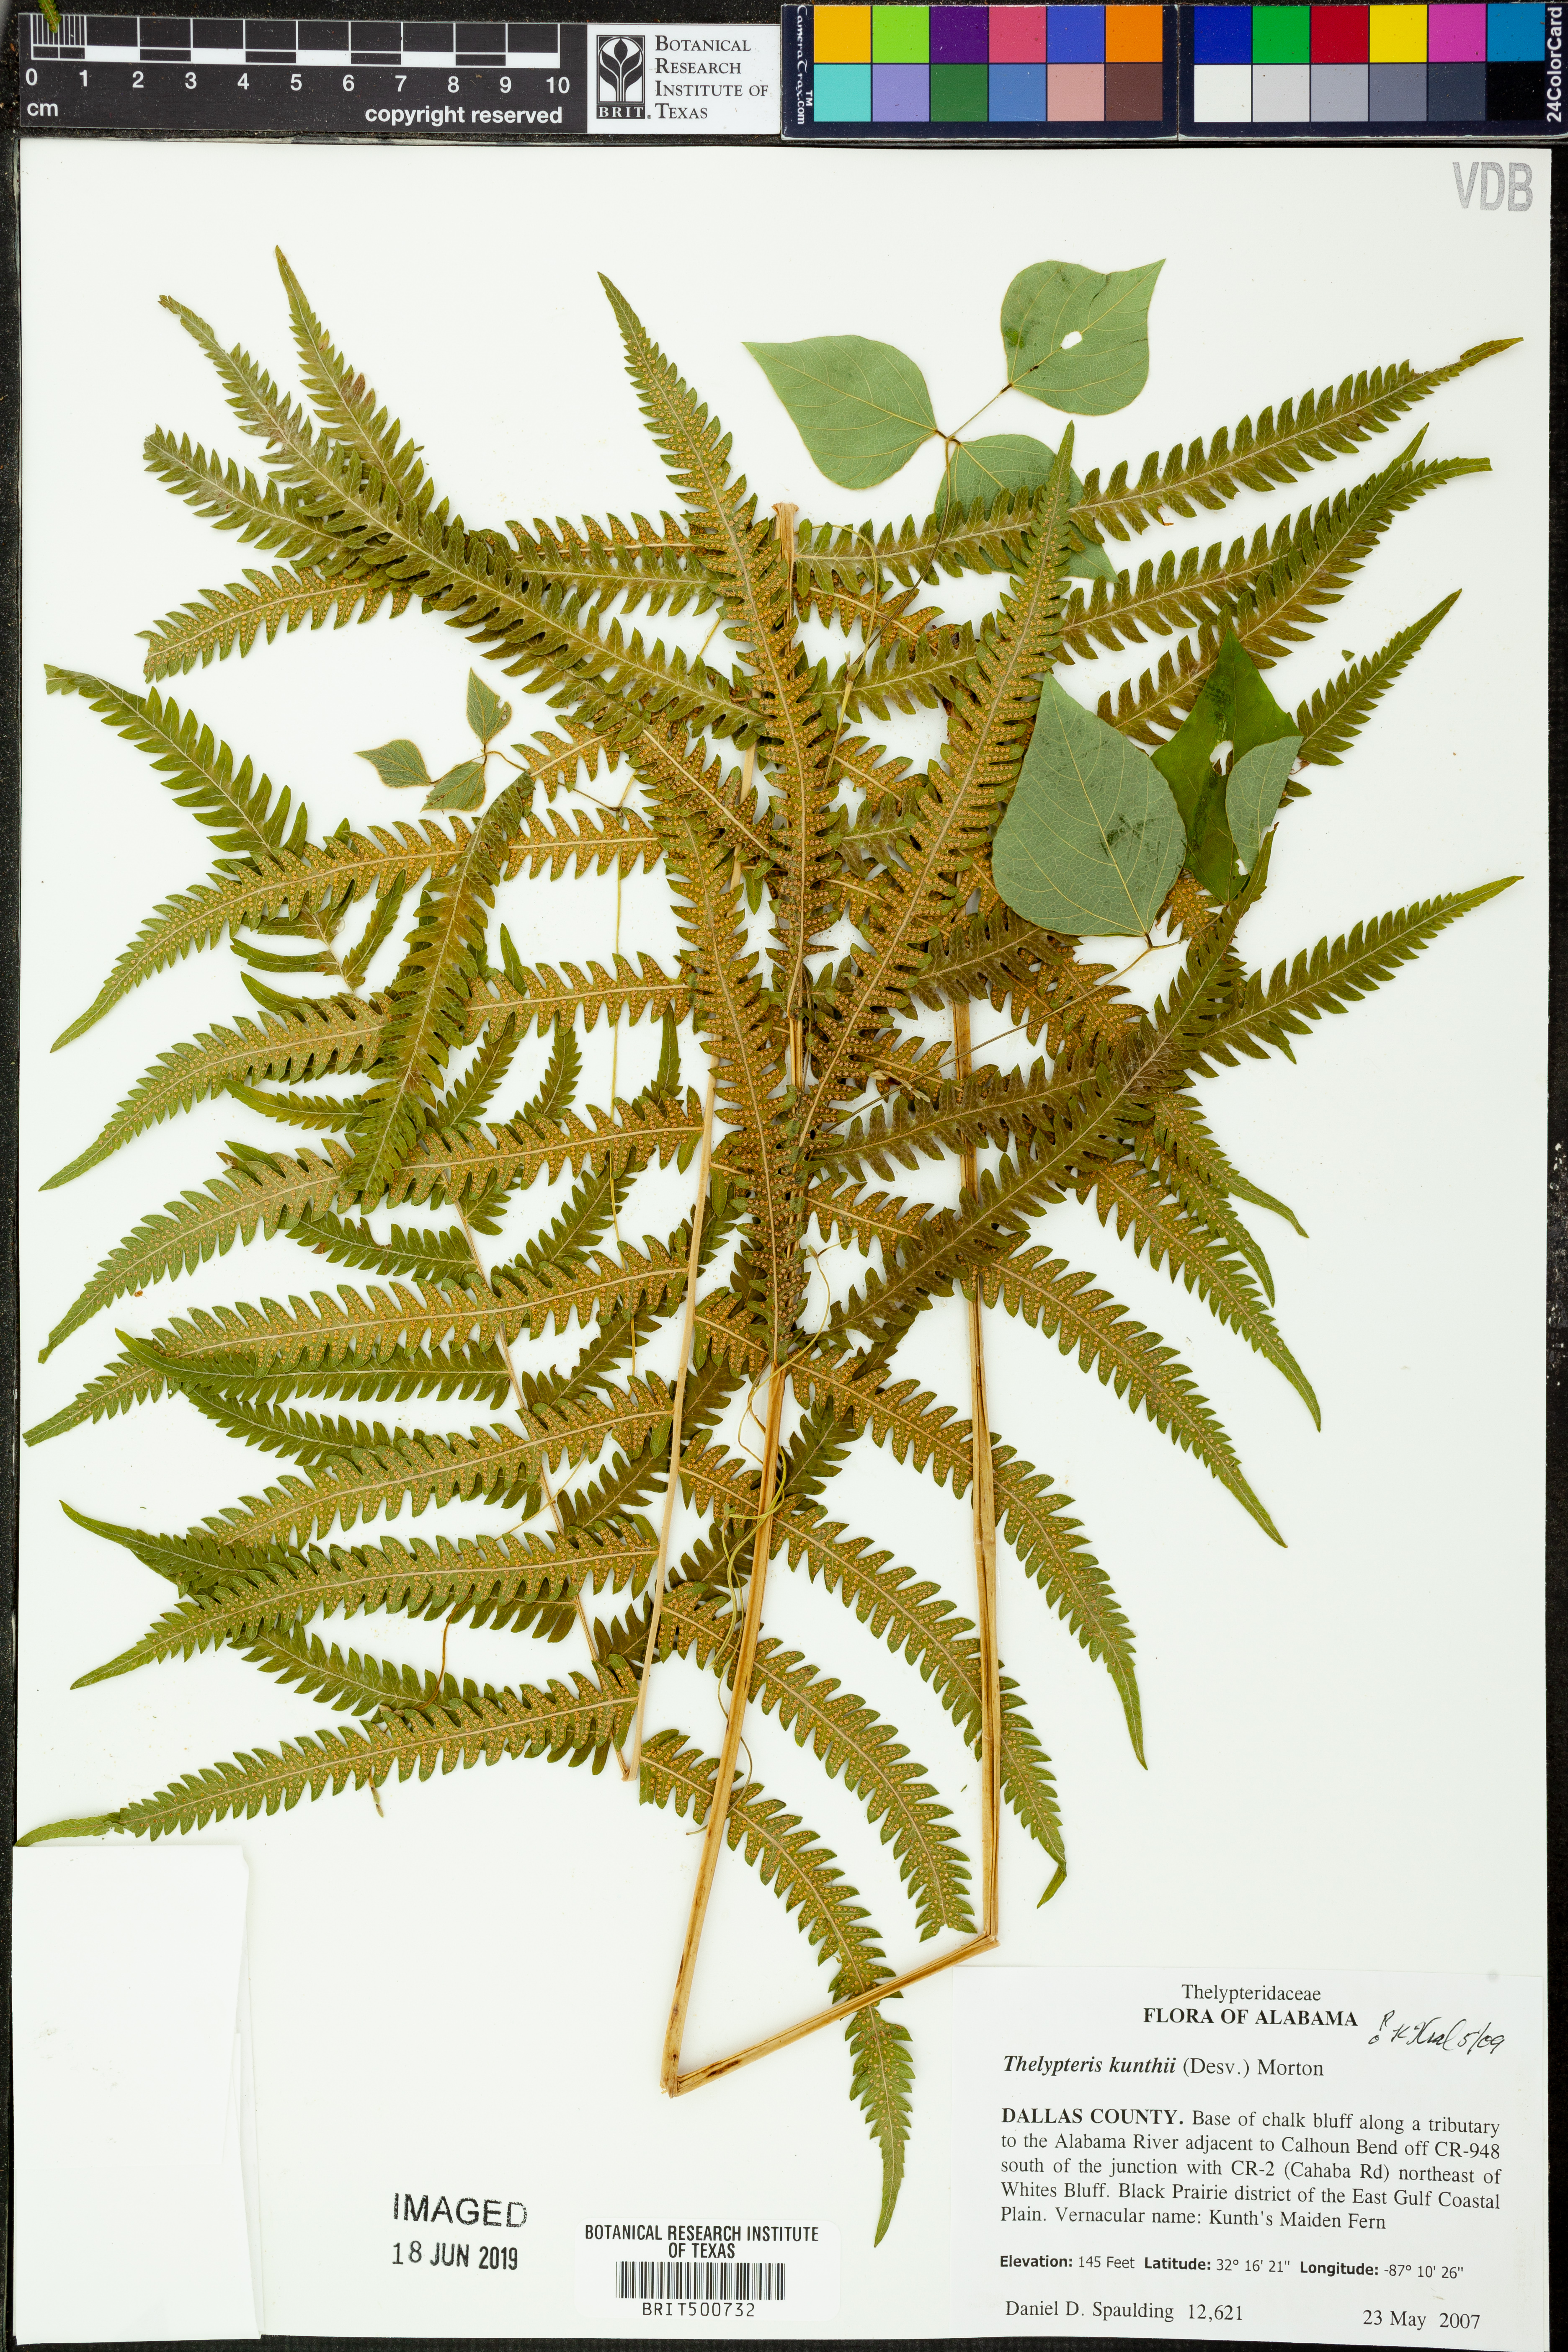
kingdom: Plantae
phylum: Tracheophyta
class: Polypodiopsida
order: Polypodiales
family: Thelypteridaceae
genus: Pelazoneuron
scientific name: Pelazoneuron kunthii
